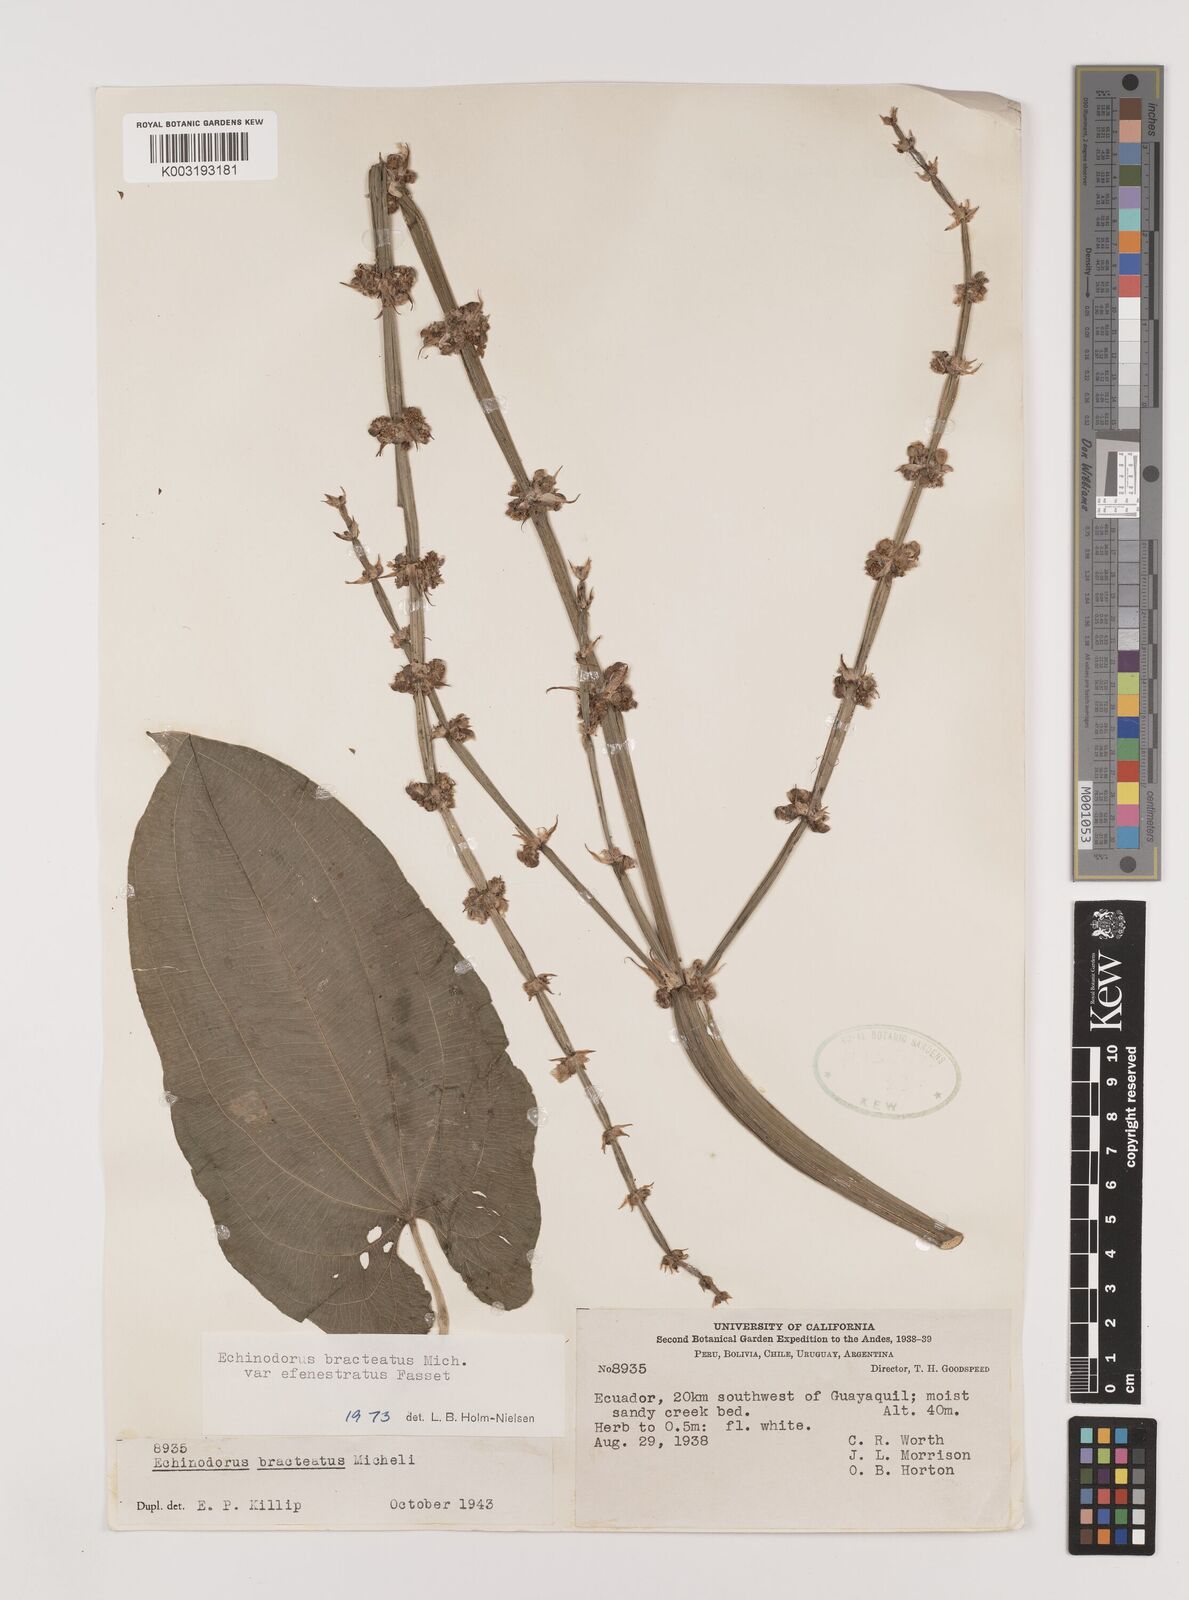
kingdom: Plantae
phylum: Tracheophyta
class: Liliopsida
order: Alismatales
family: Alismataceae
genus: Aquarius
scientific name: Aquarius bracteatus
